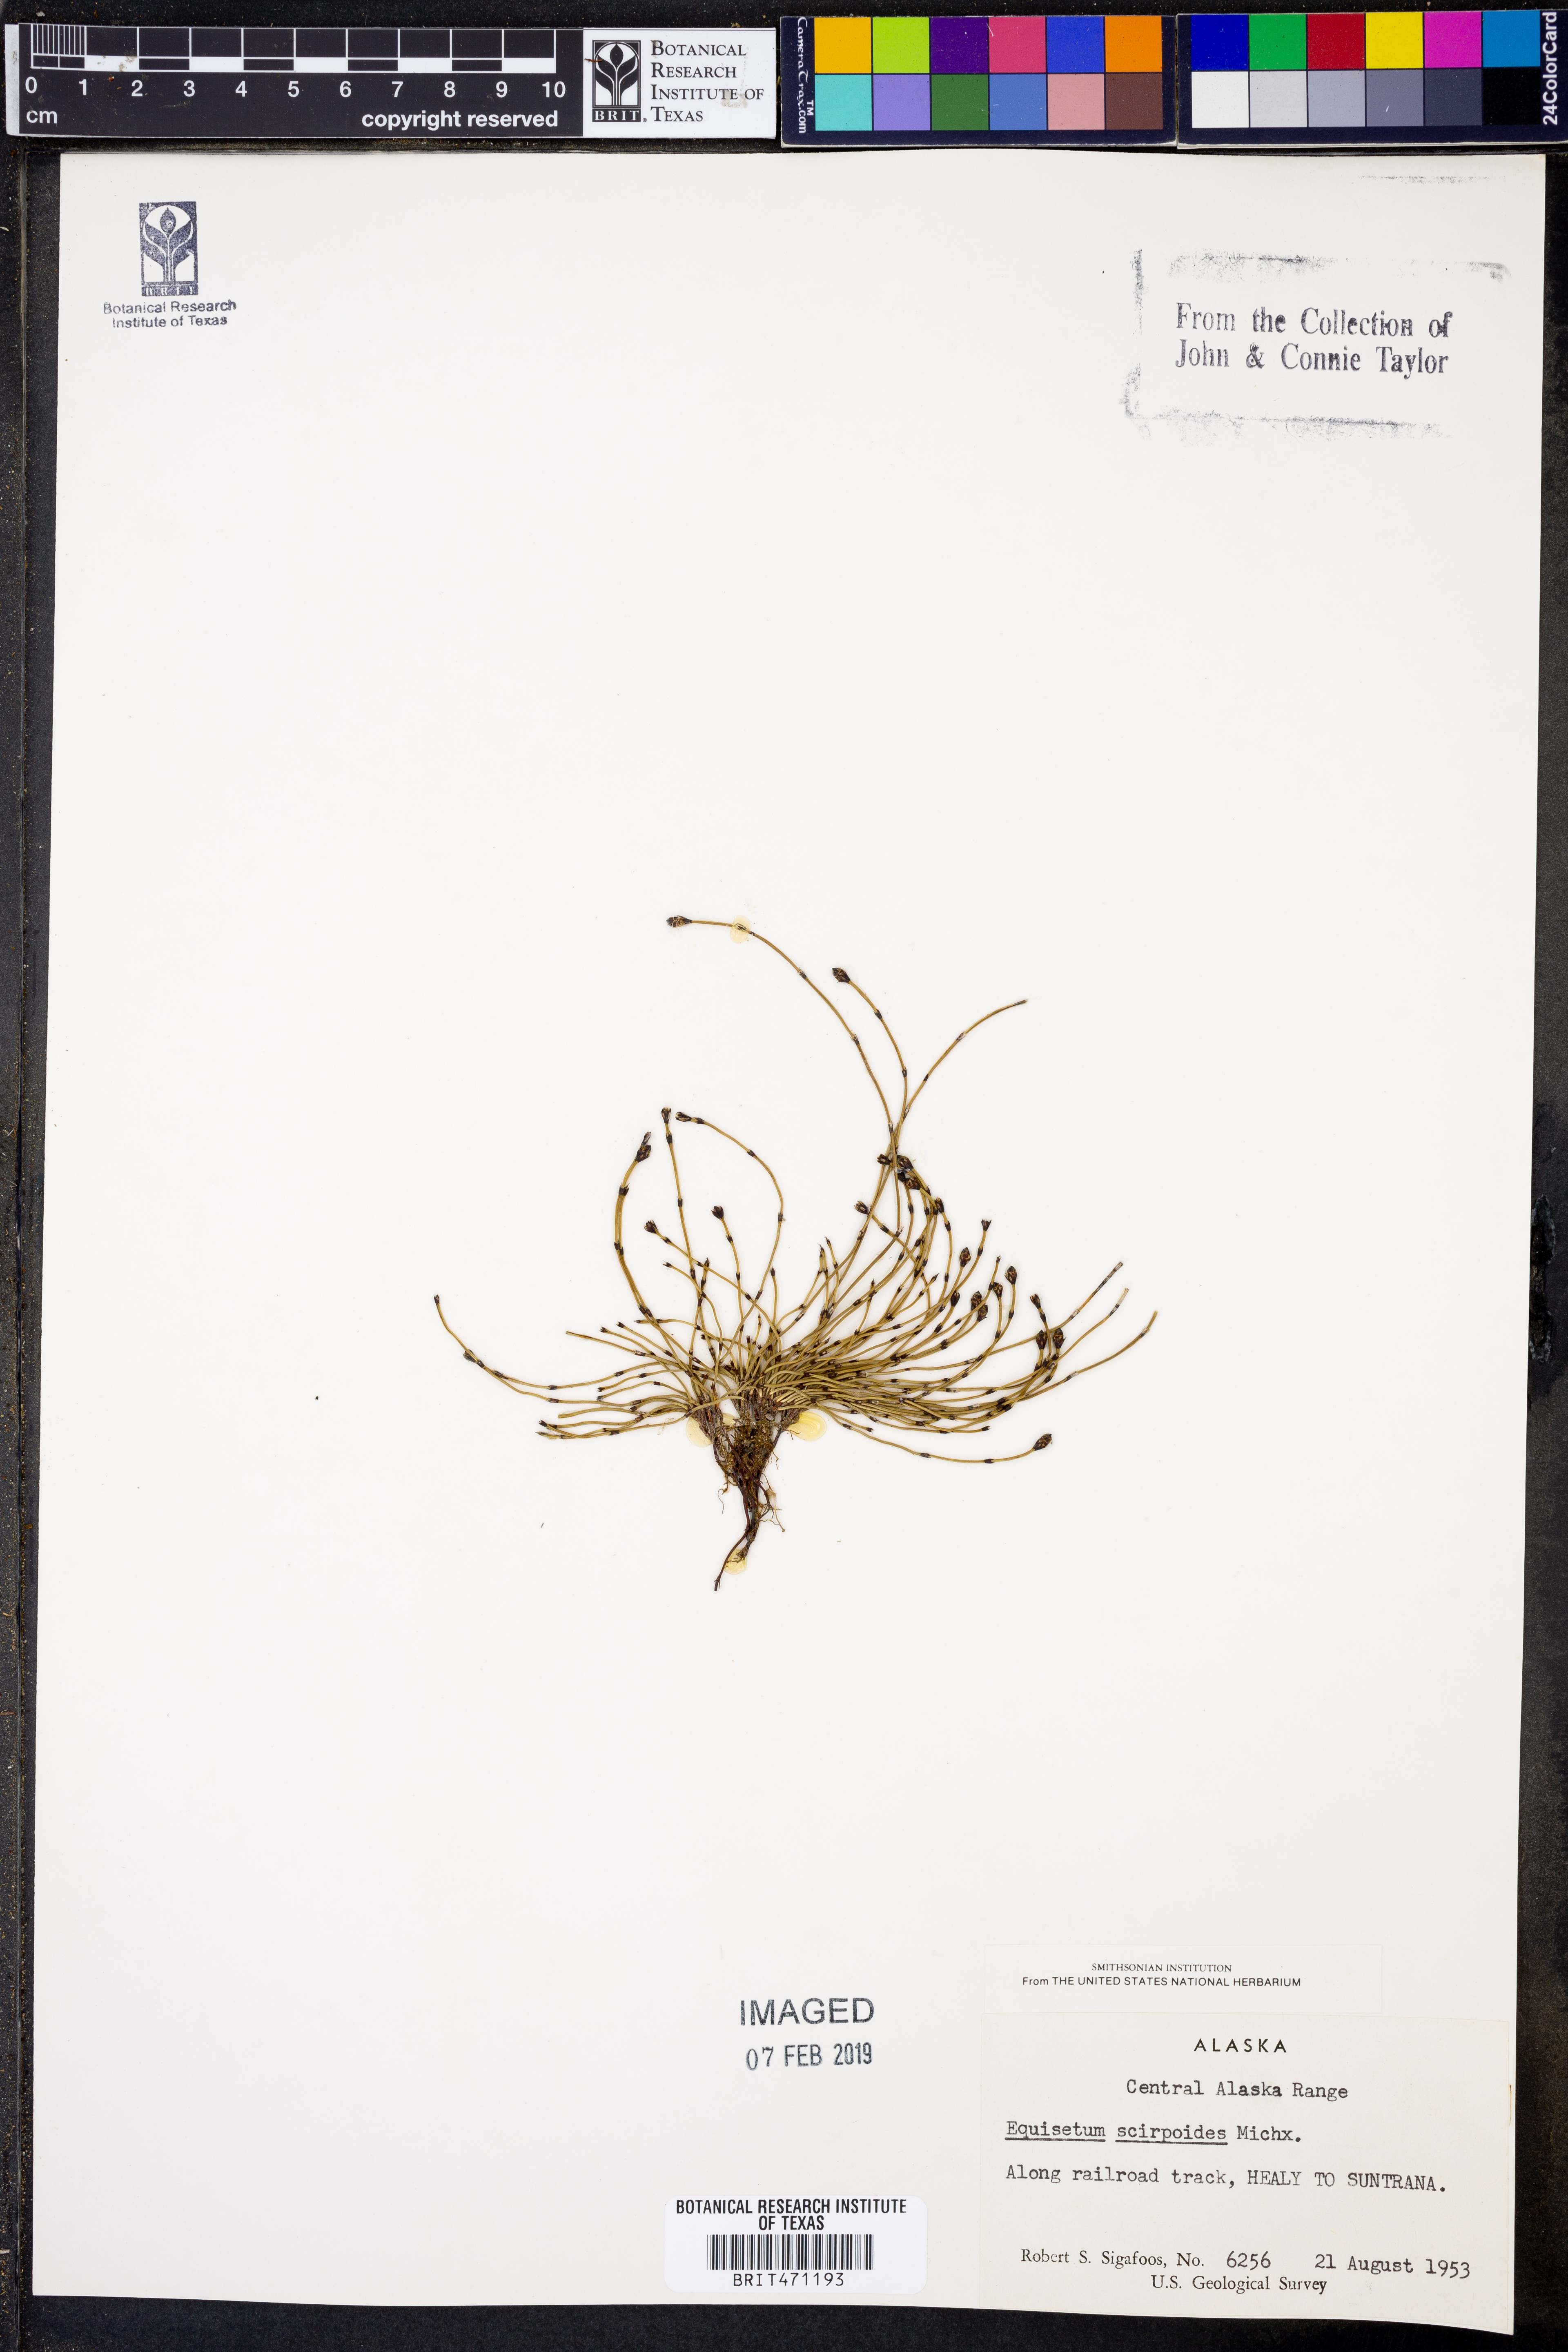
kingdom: Plantae
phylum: Tracheophyta
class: Polypodiopsida
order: Equisetales
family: Equisetaceae
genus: Equisetum
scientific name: Equisetum scirpoides
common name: Delicate horsetail
